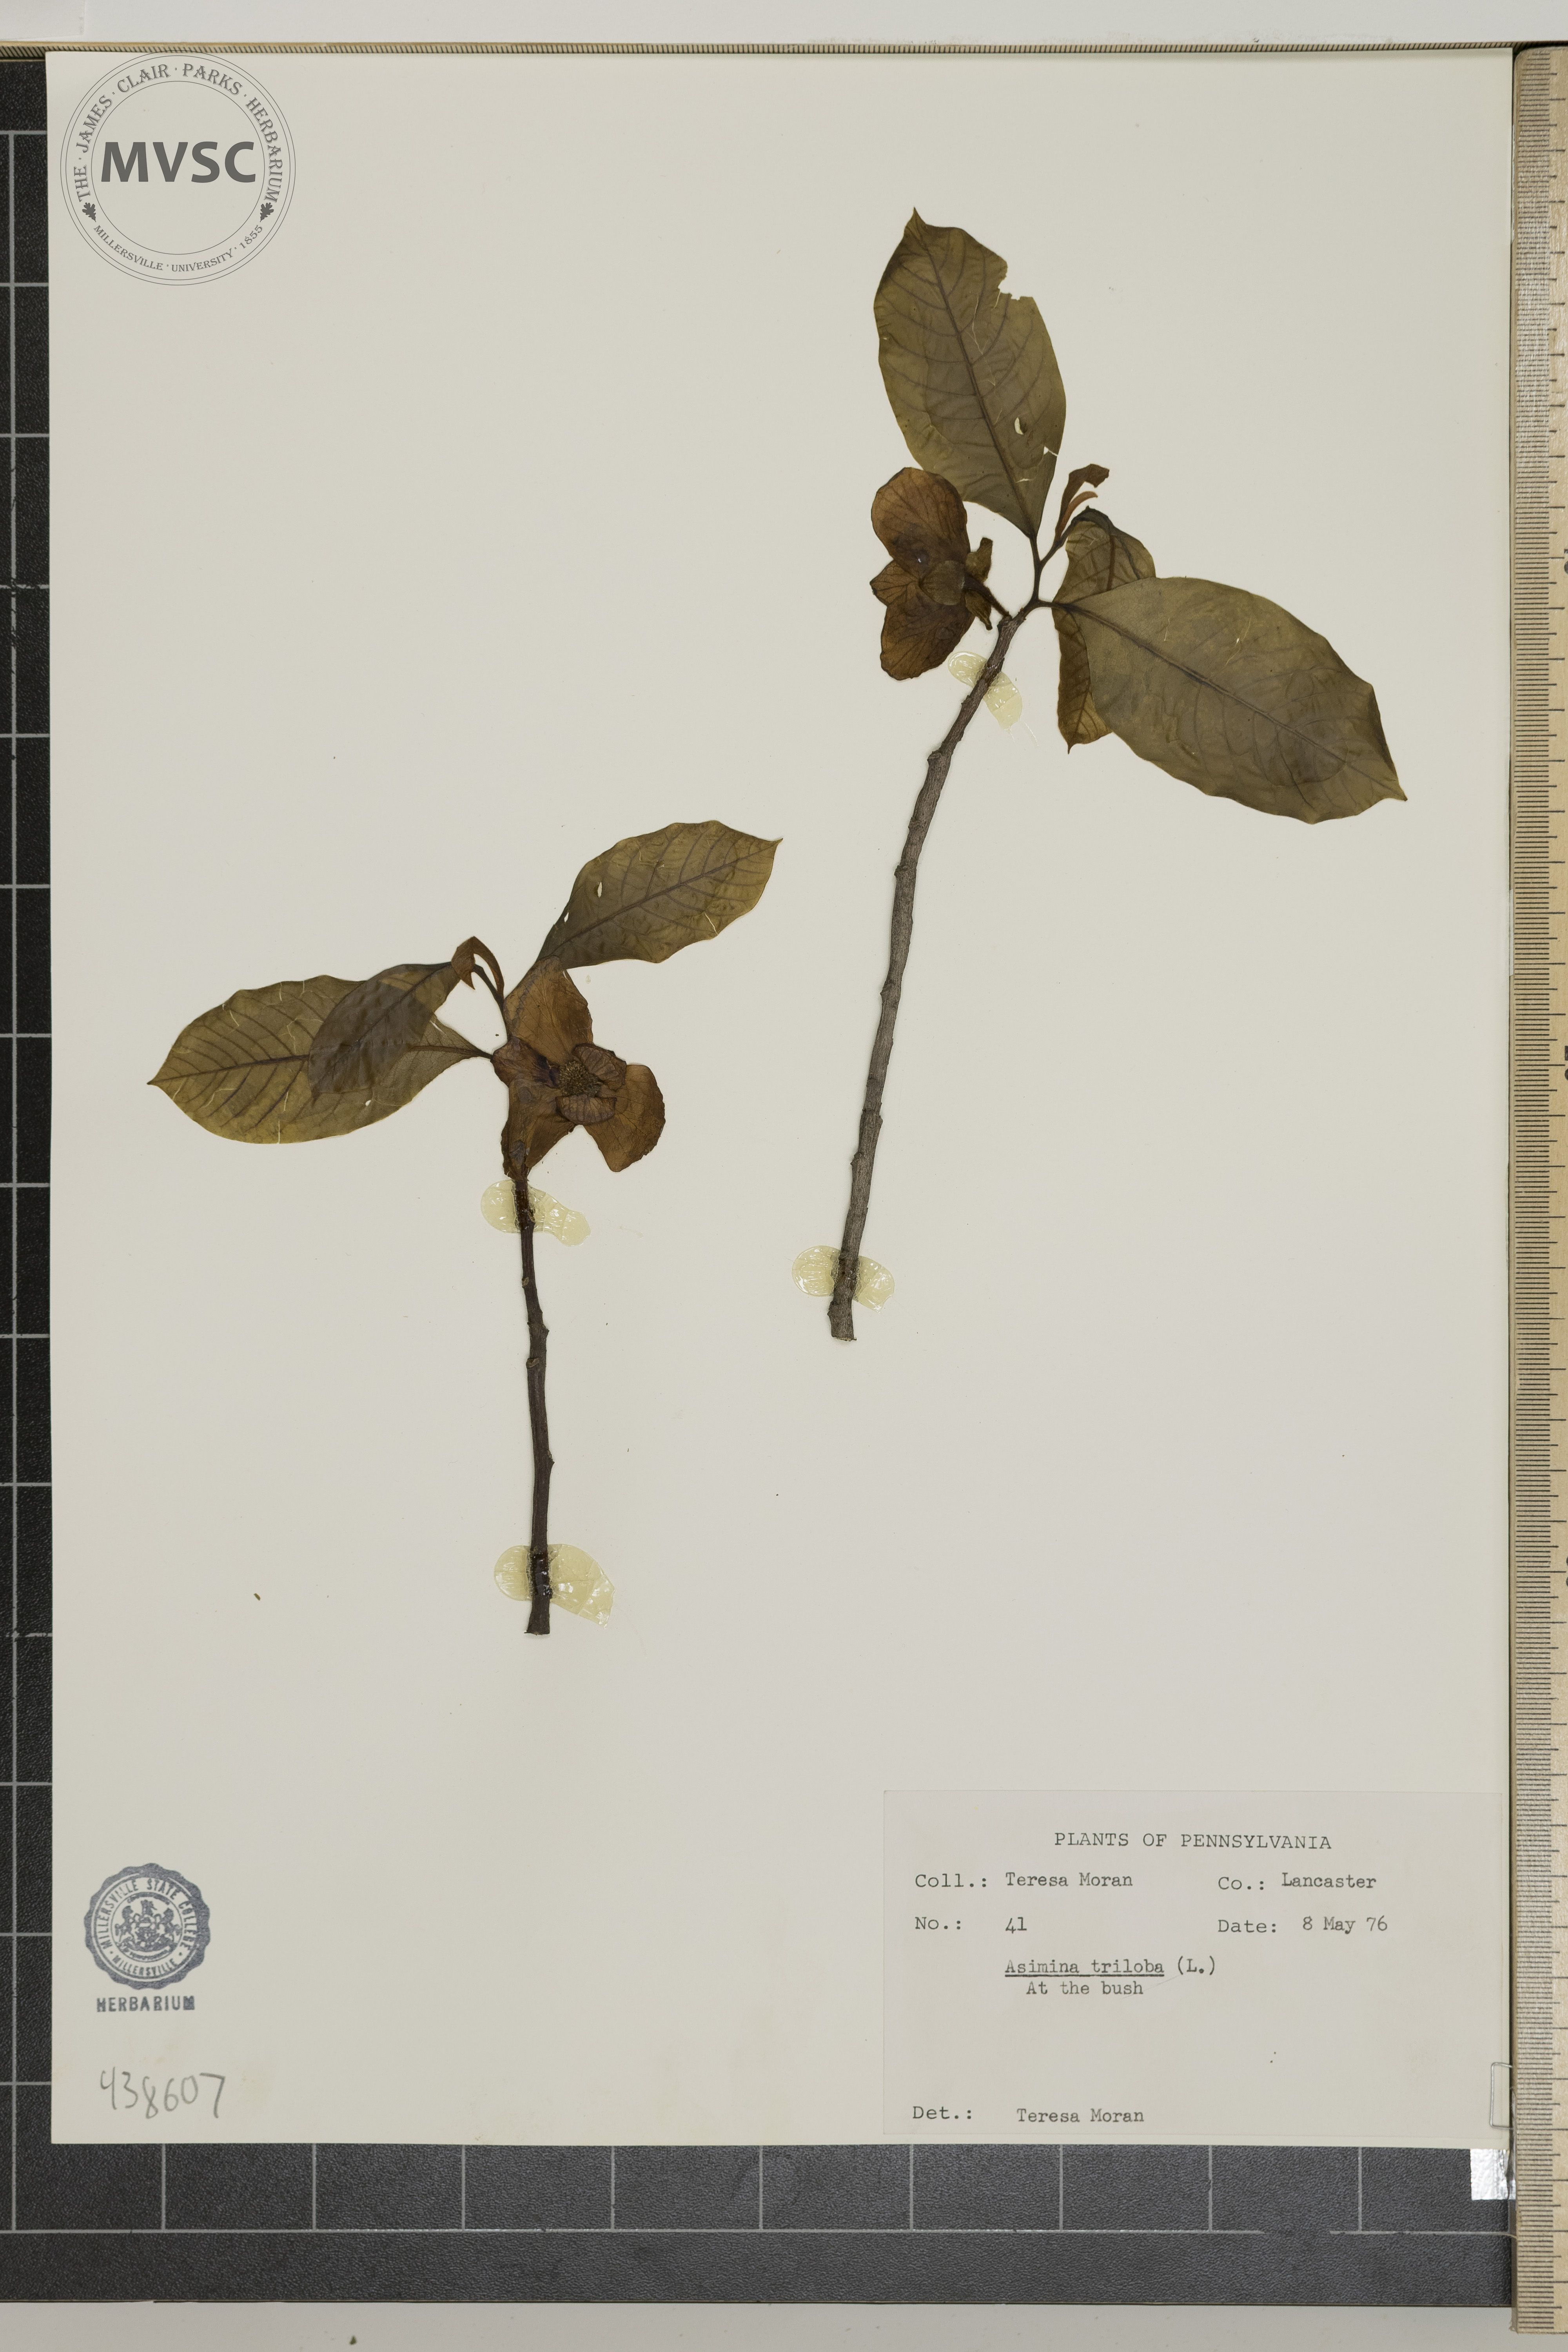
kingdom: Plantae
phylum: Tracheophyta
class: Magnoliopsida
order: Magnoliales
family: Annonaceae
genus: Asimina
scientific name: Asimina triloba
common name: Dog-banana
